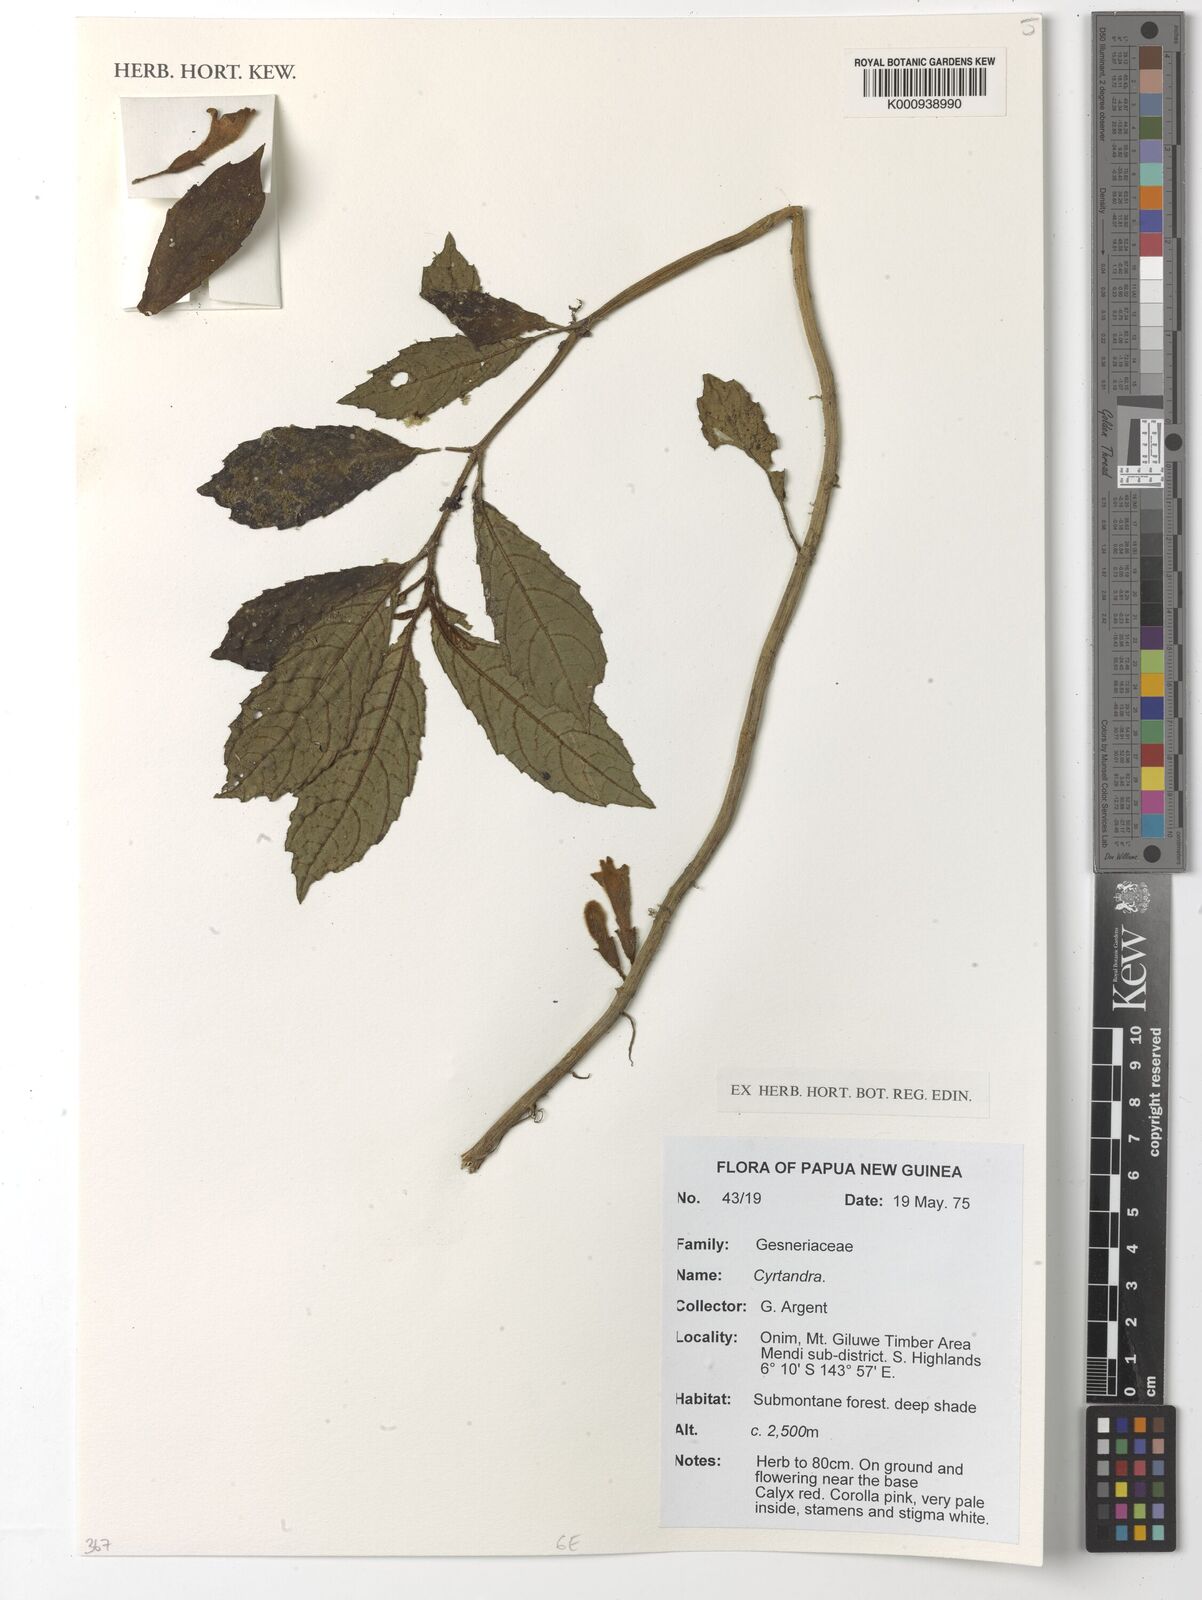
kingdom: Plantae
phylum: Tracheophyta
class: Magnoliopsida
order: Lamiales
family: Gesneriaceae
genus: Cyrtandra
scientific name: Cyrtandra
